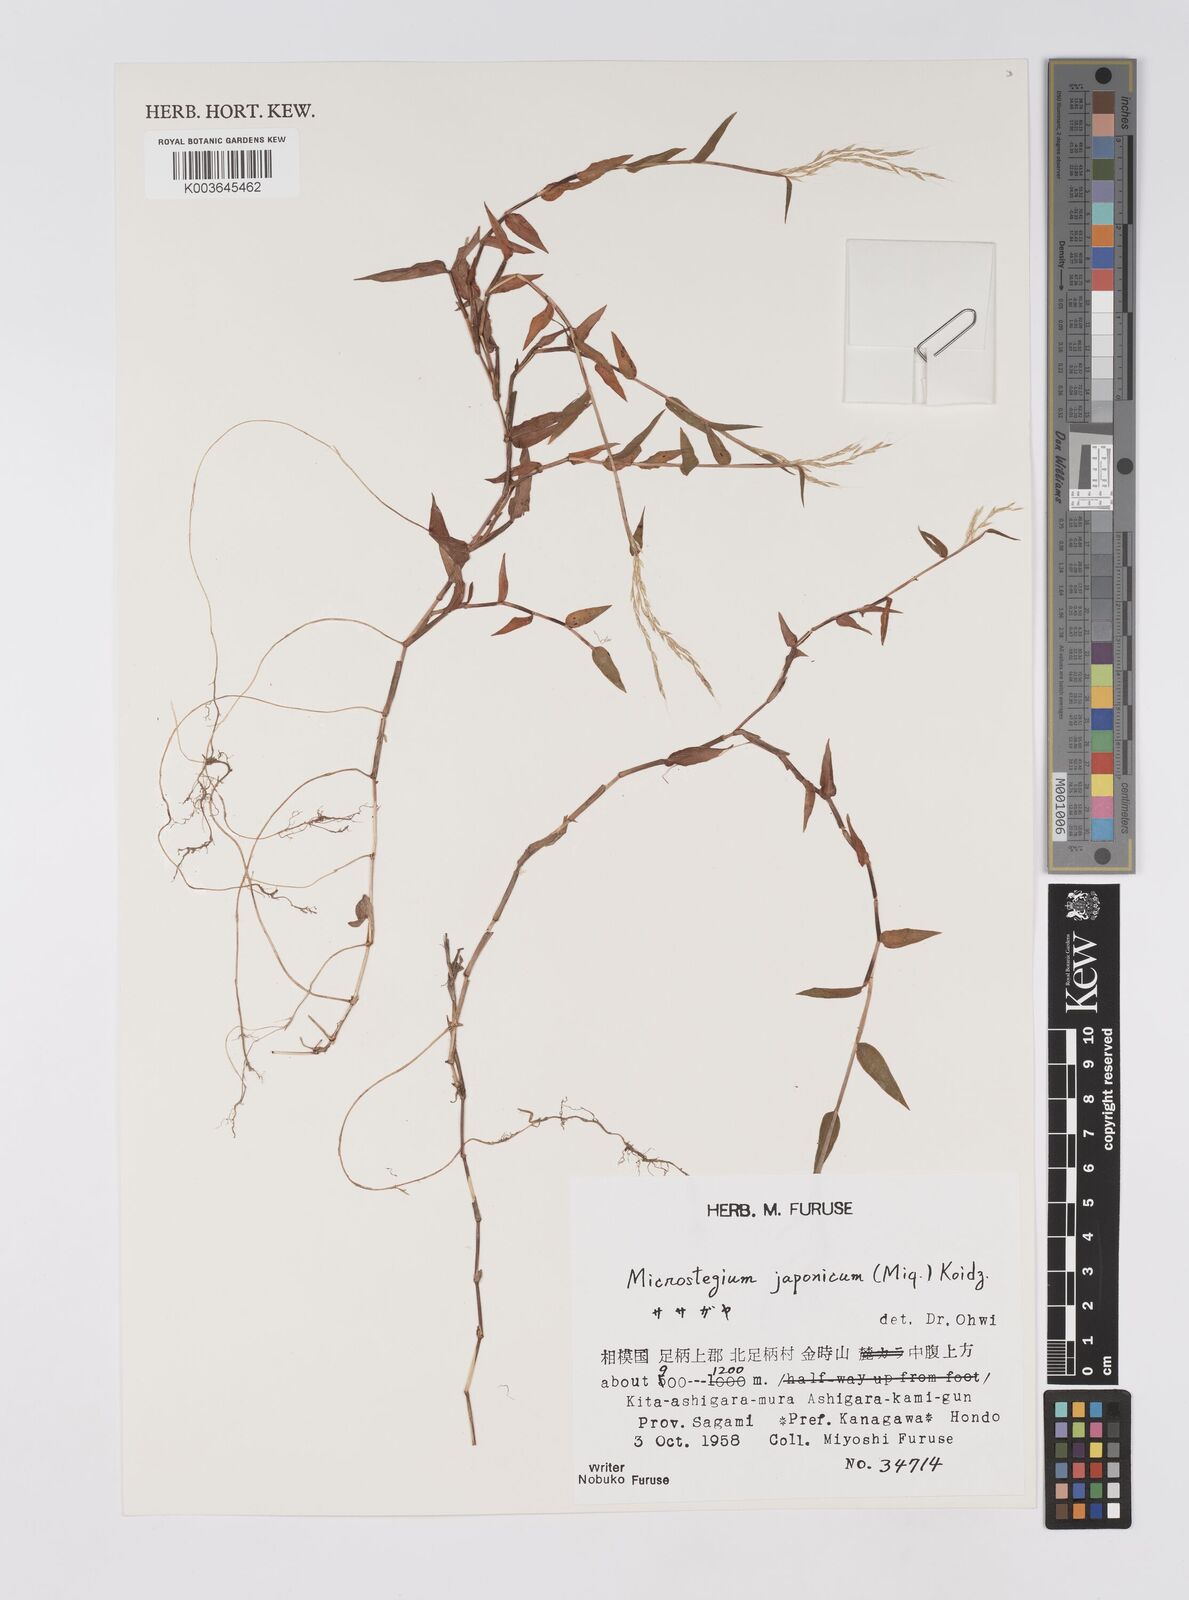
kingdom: Plantae
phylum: Tracheophyta
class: Liliopsida
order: Poales
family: Poaceae
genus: Microstegium
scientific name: Microstegium japonicum
